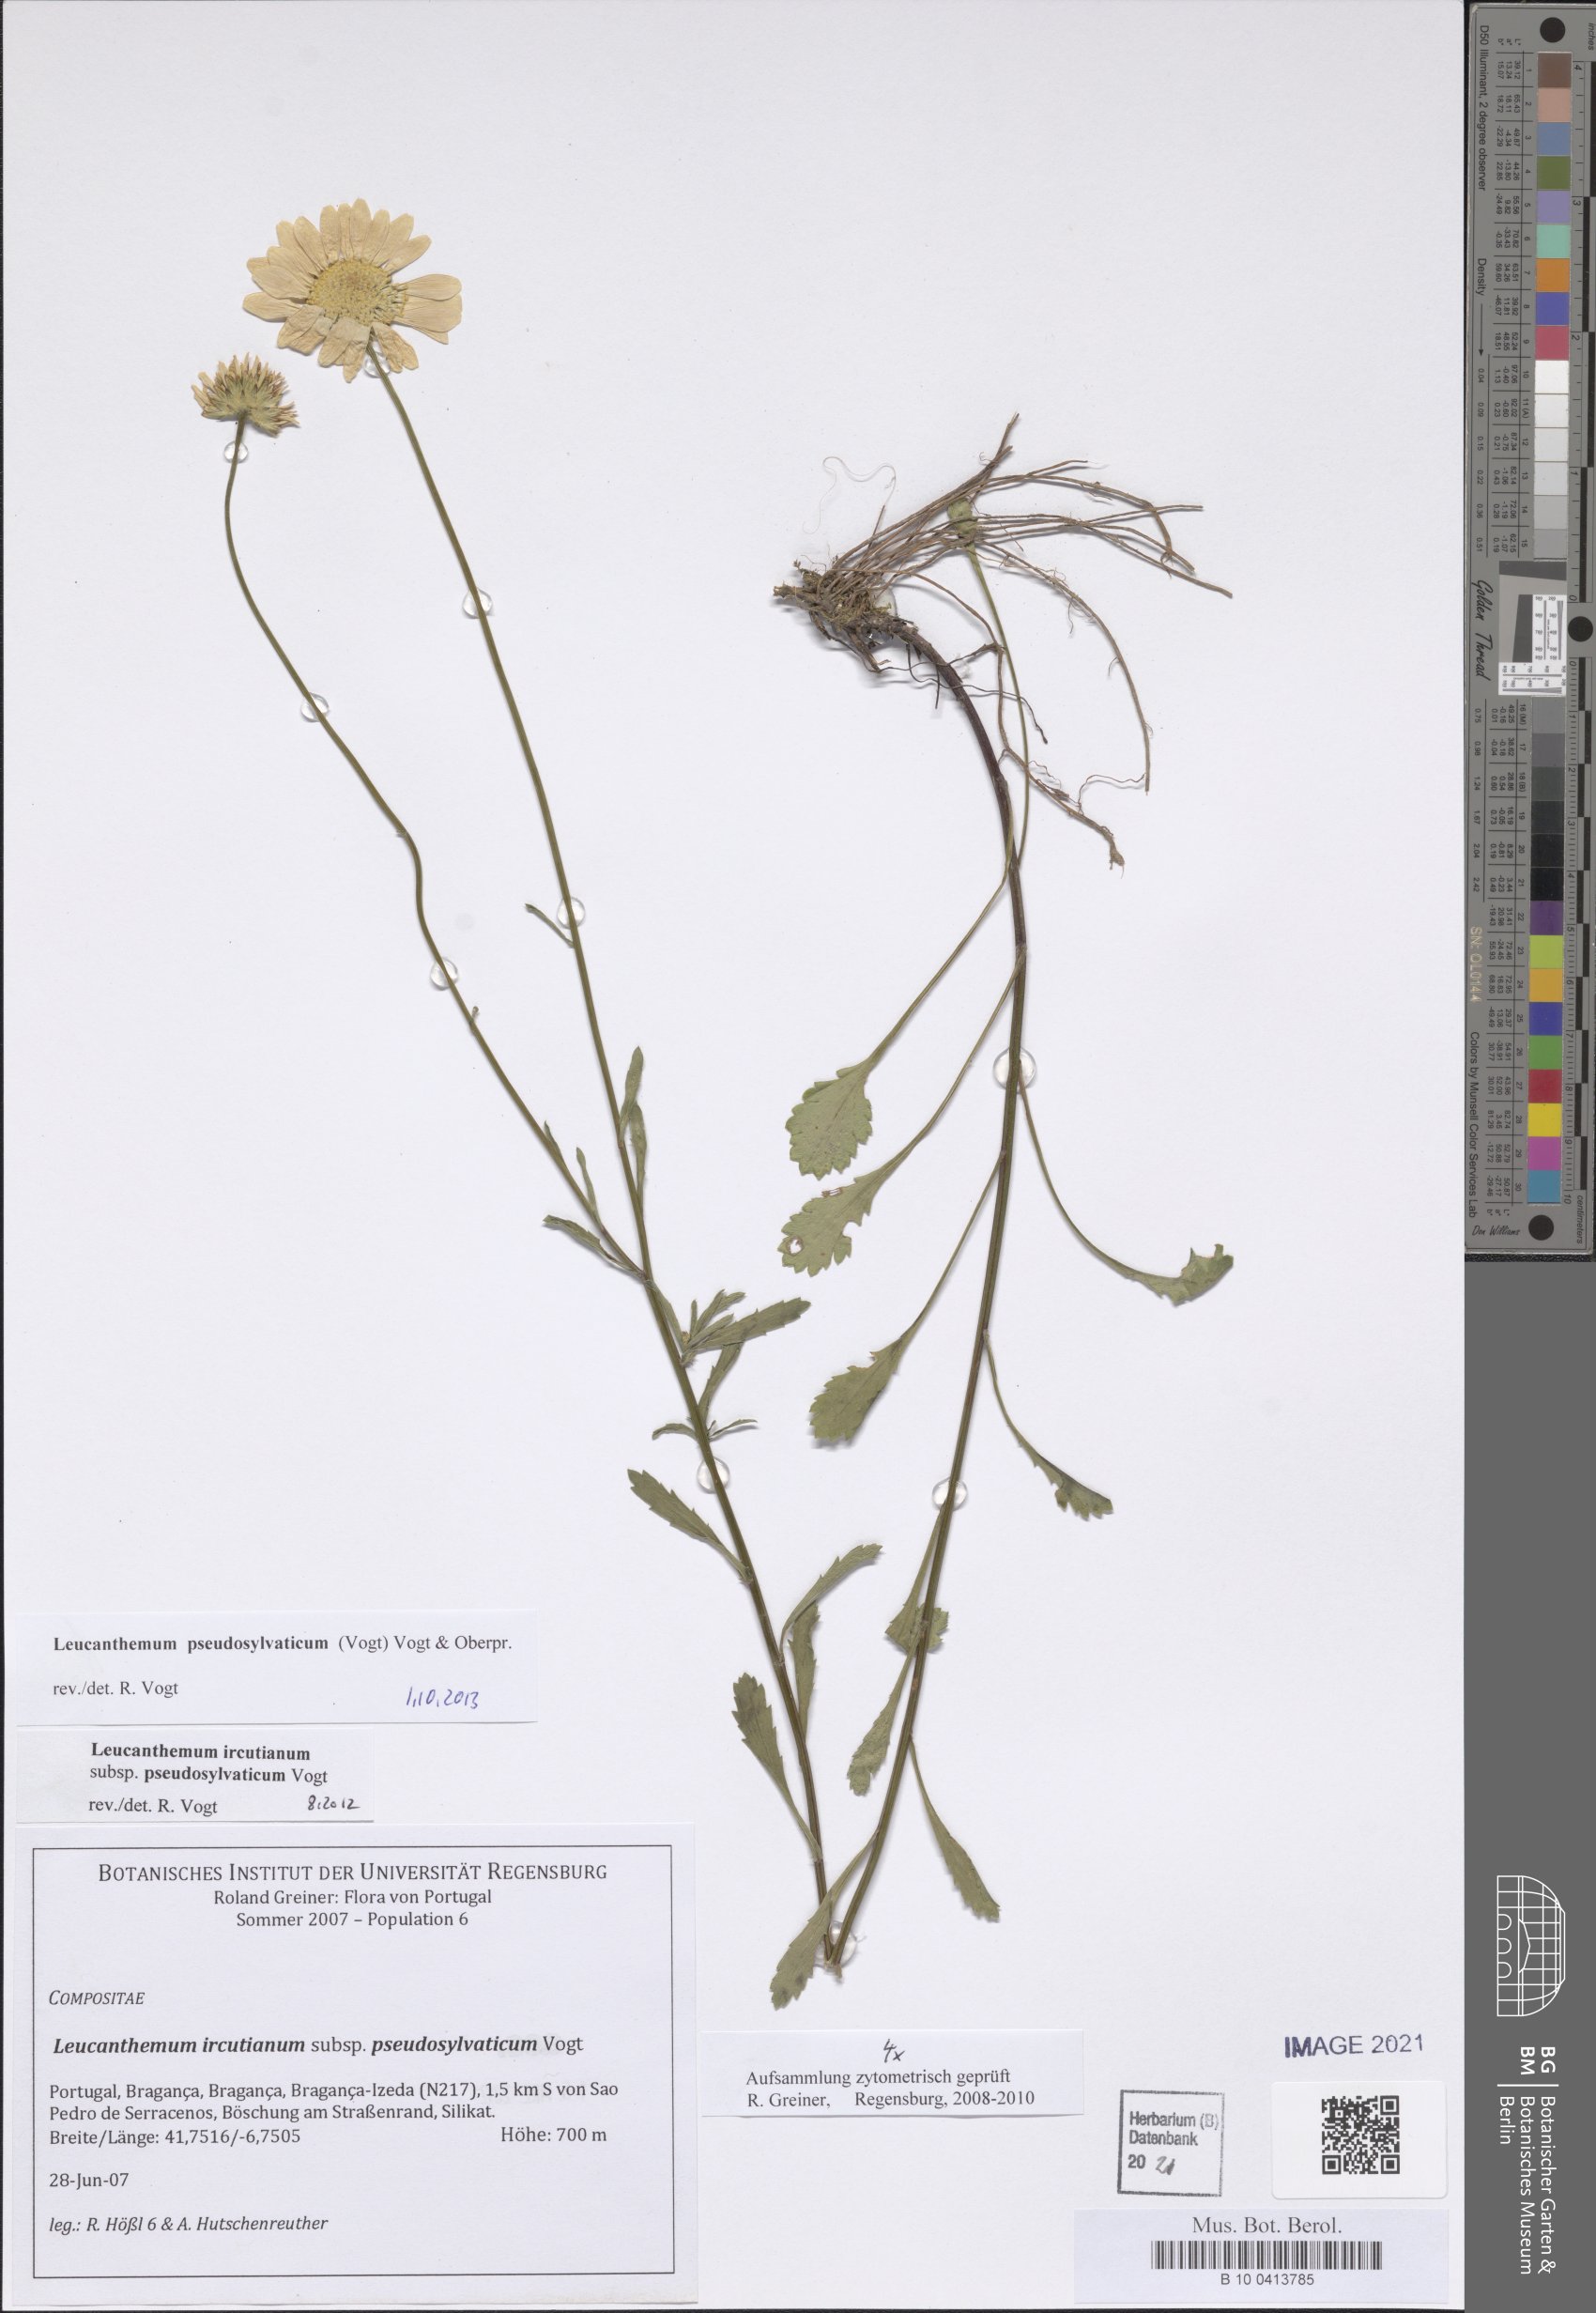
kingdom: Plantae
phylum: Tracheophyta
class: Magnoliopsida
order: Asterales
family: Asteraceae
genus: Leucanthemum
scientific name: Leucanthemum pseudosylvaticum
